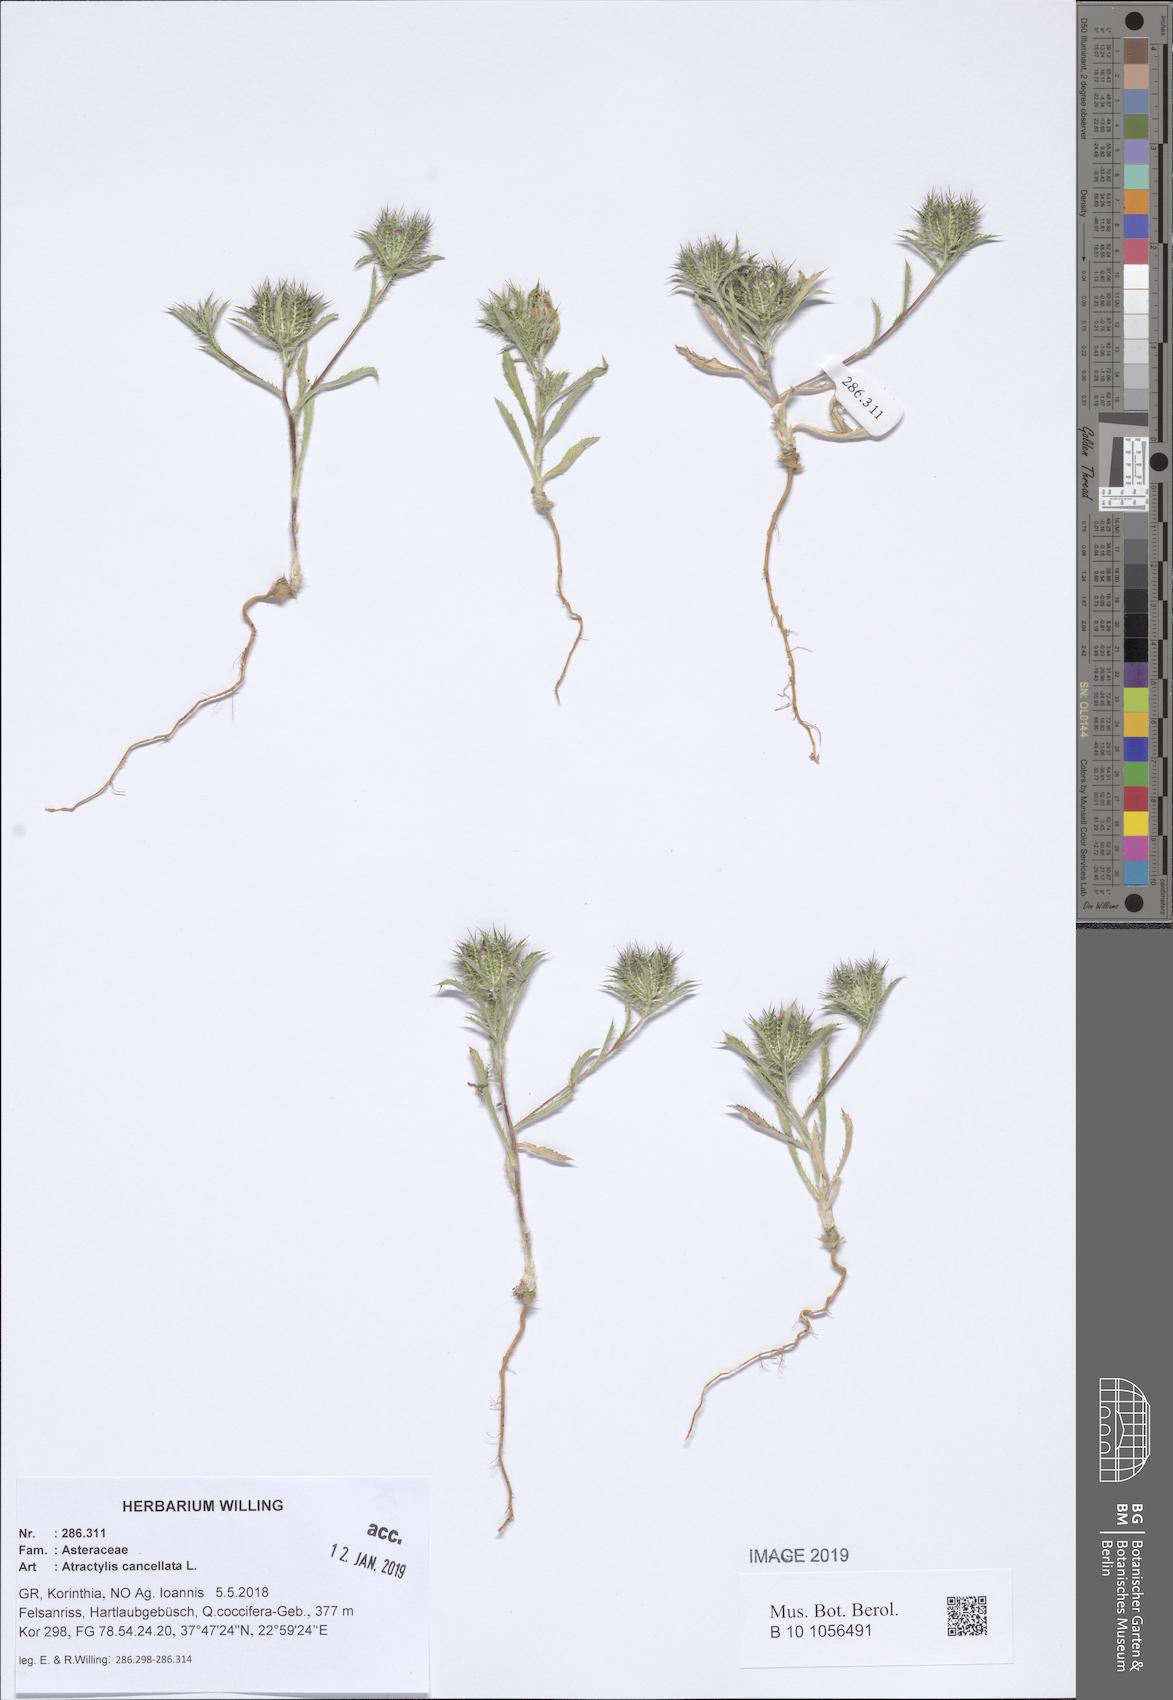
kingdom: Plantae
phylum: Tracheophyta
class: Magnoliopsida
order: Asterales
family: Asteraceae
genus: Atractylis
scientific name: Atractylis cancellata
